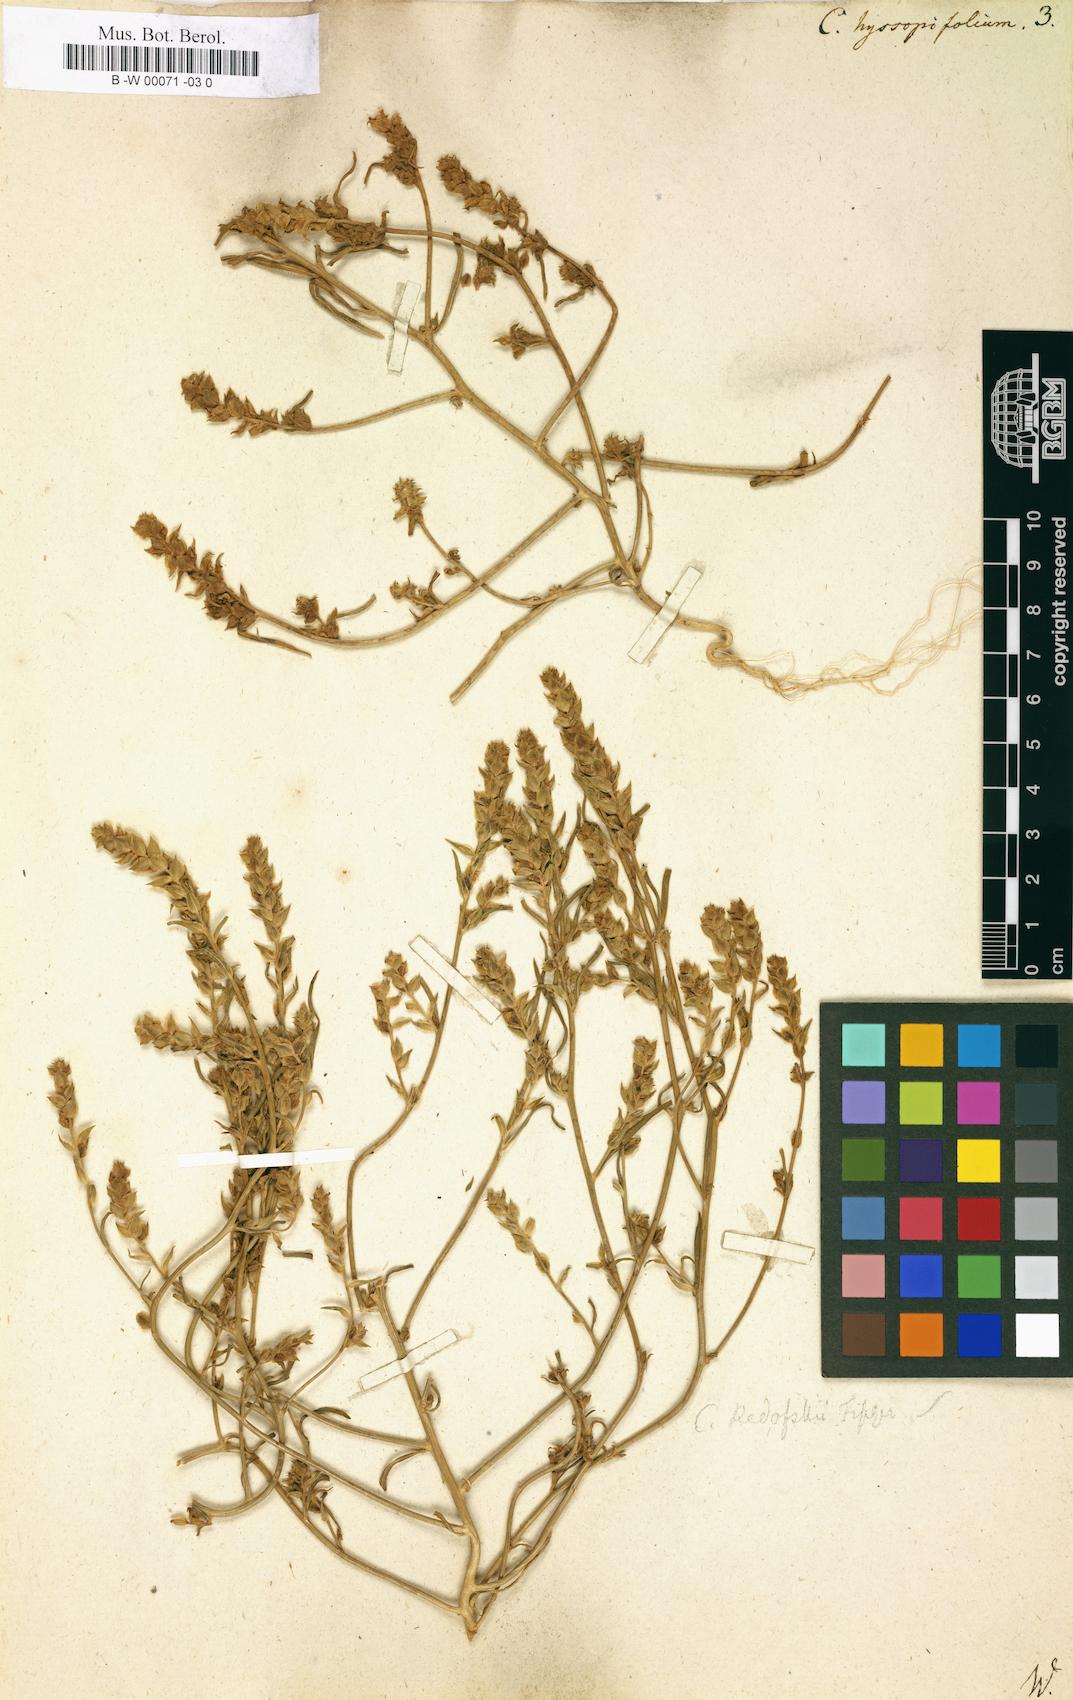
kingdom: Plantae
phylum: Tracheophyta
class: Magnoliopsida
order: Caryophyllales
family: Amaranthaceae
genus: Corispermum
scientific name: Corispermum hyssopifolium
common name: Bugseed
